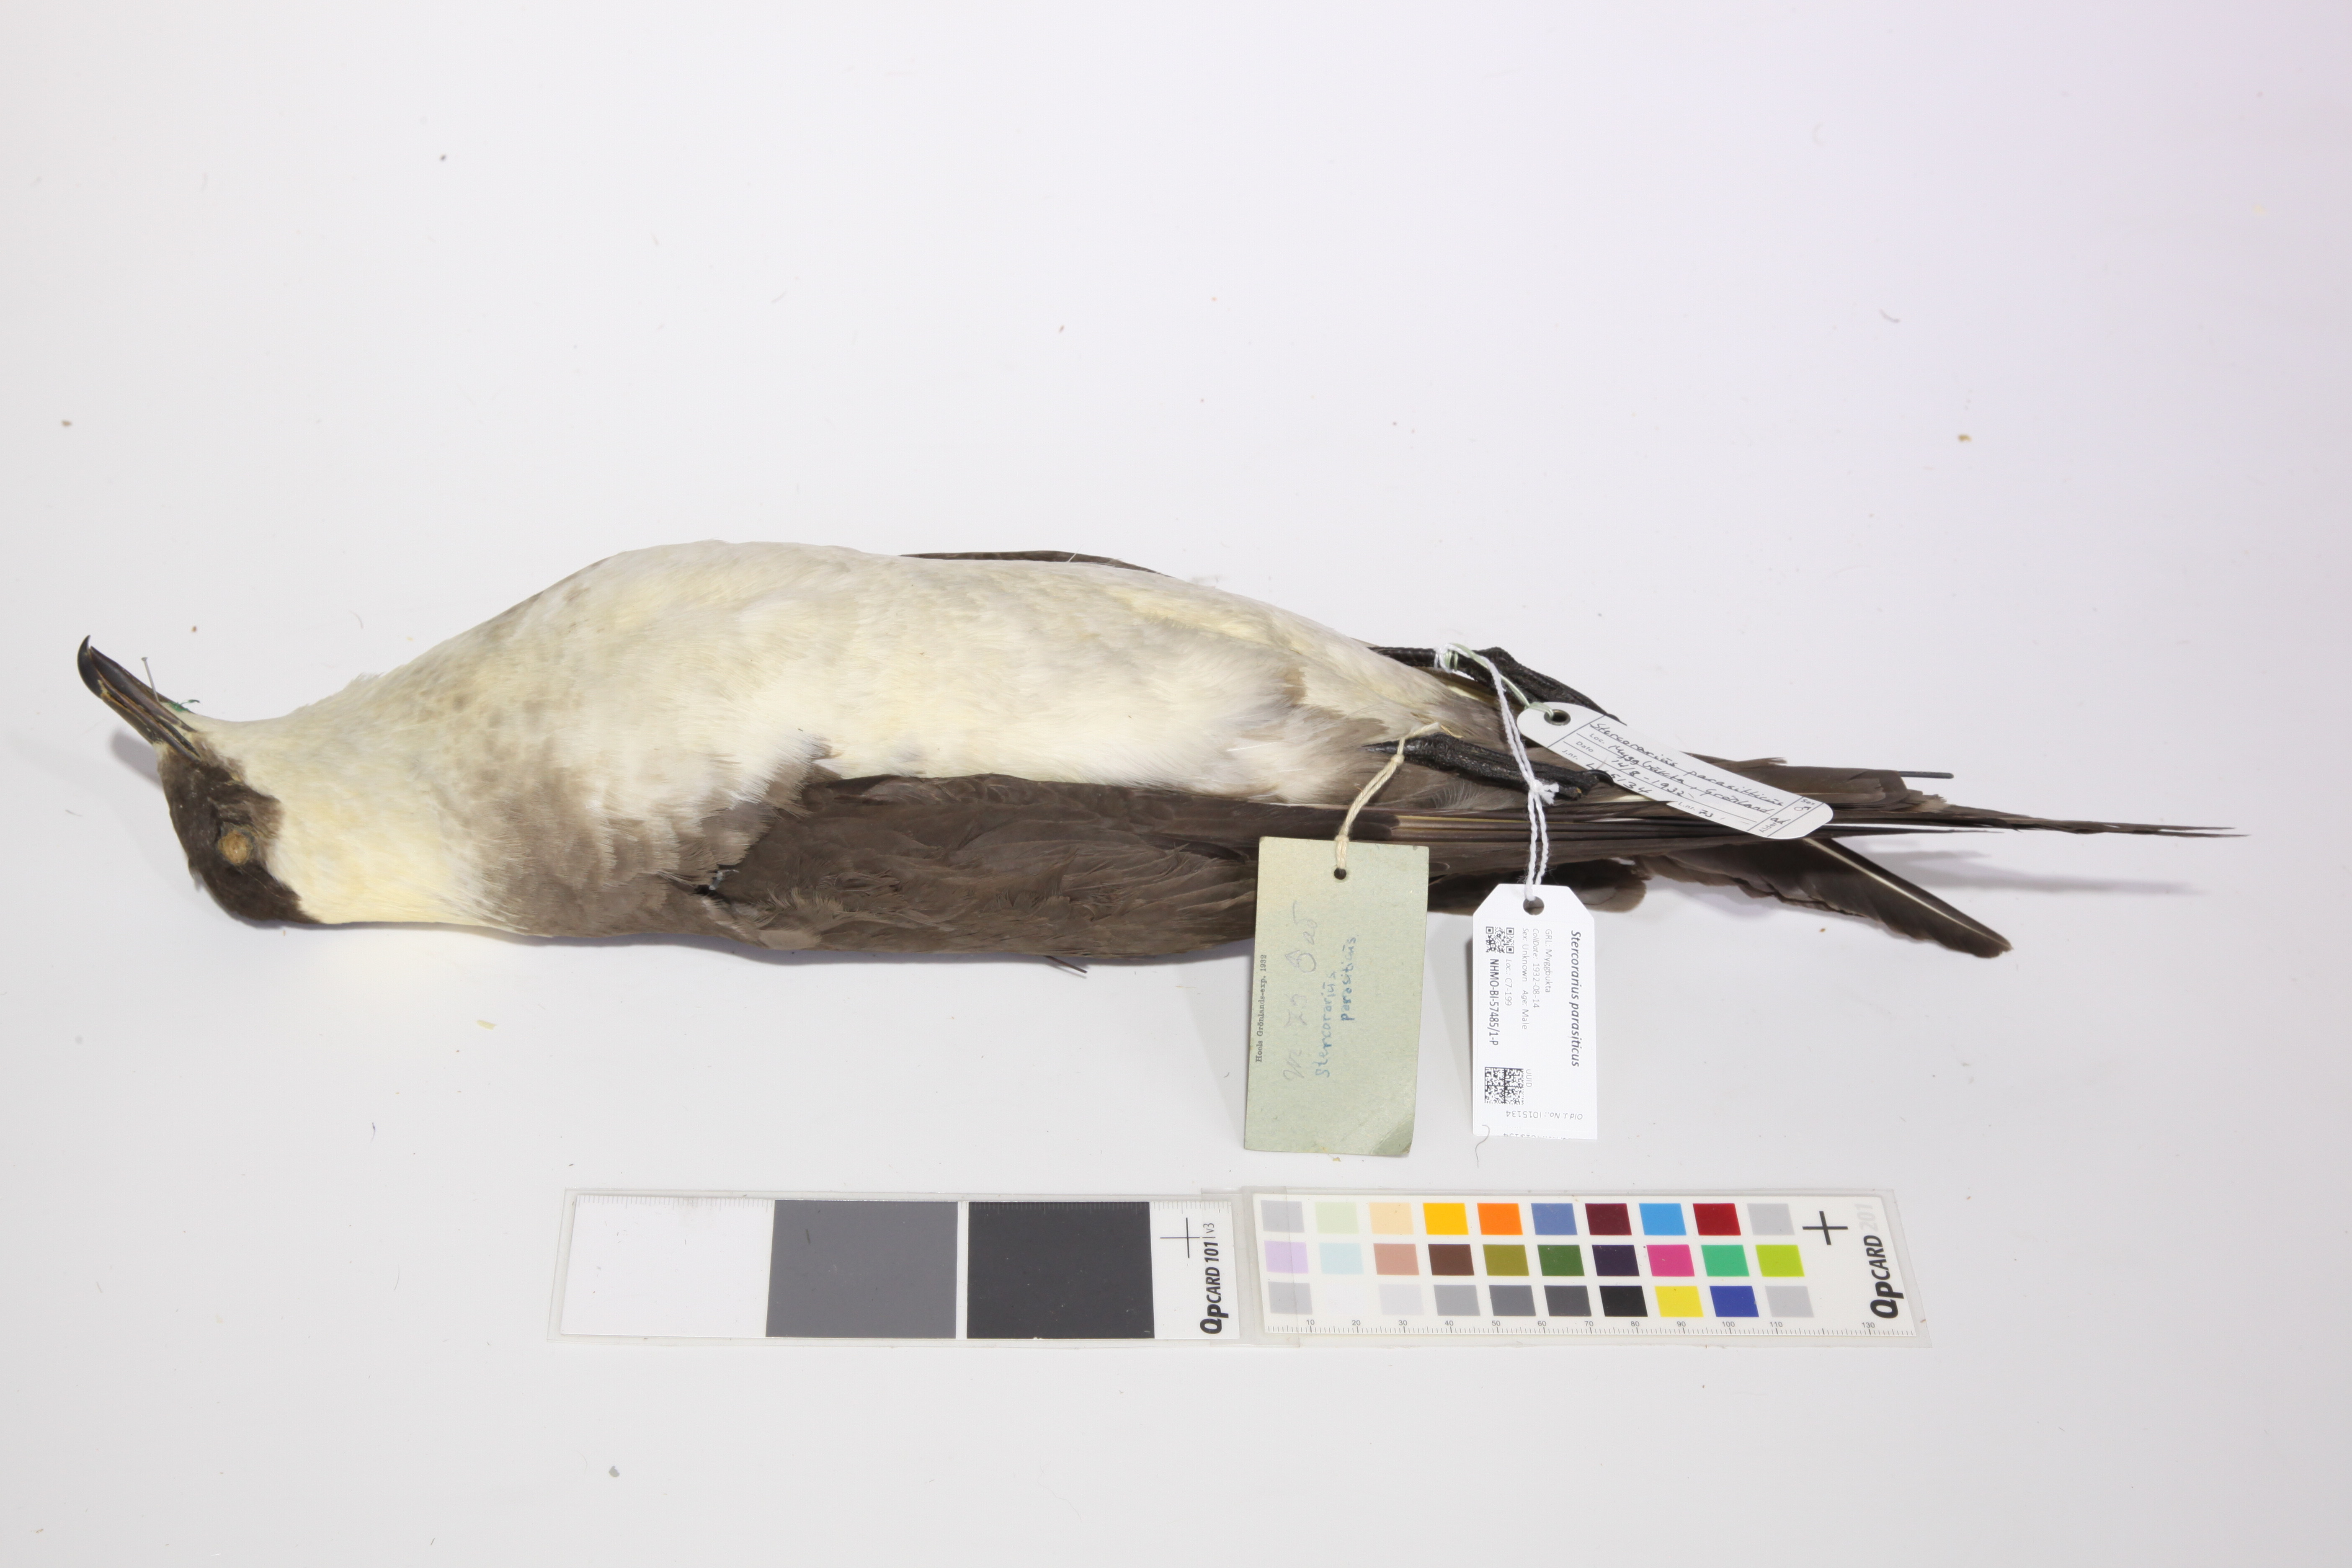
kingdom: Animalia
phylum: Chordata
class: Aves
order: Charadriiformes
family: Stercorariidae
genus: Stercorarius
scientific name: Stercorarius parasiticus
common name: Parasitic jaeger
